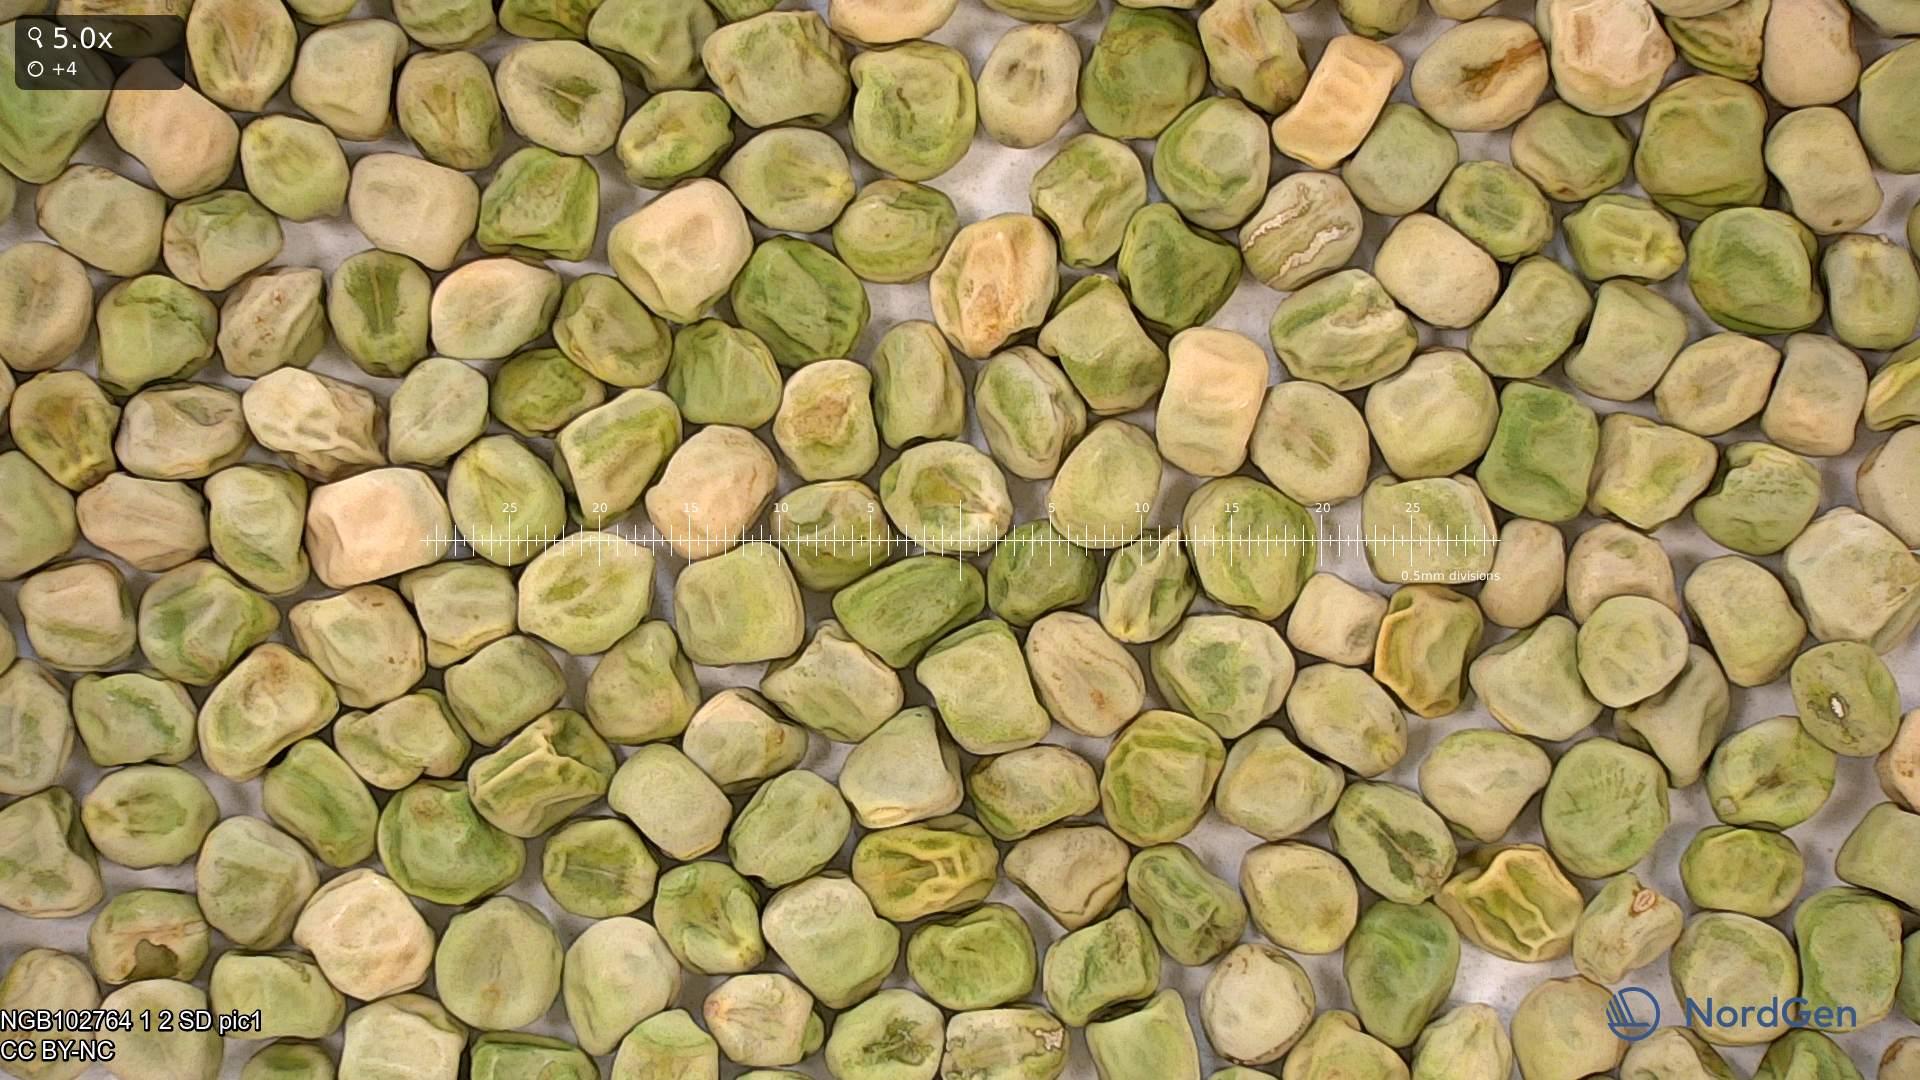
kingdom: Plantae
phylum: Tracheophyta
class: Magnoliopsida
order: Fabales
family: Fabaceae
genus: Lathyrus
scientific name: Lathyrus oleraceus
